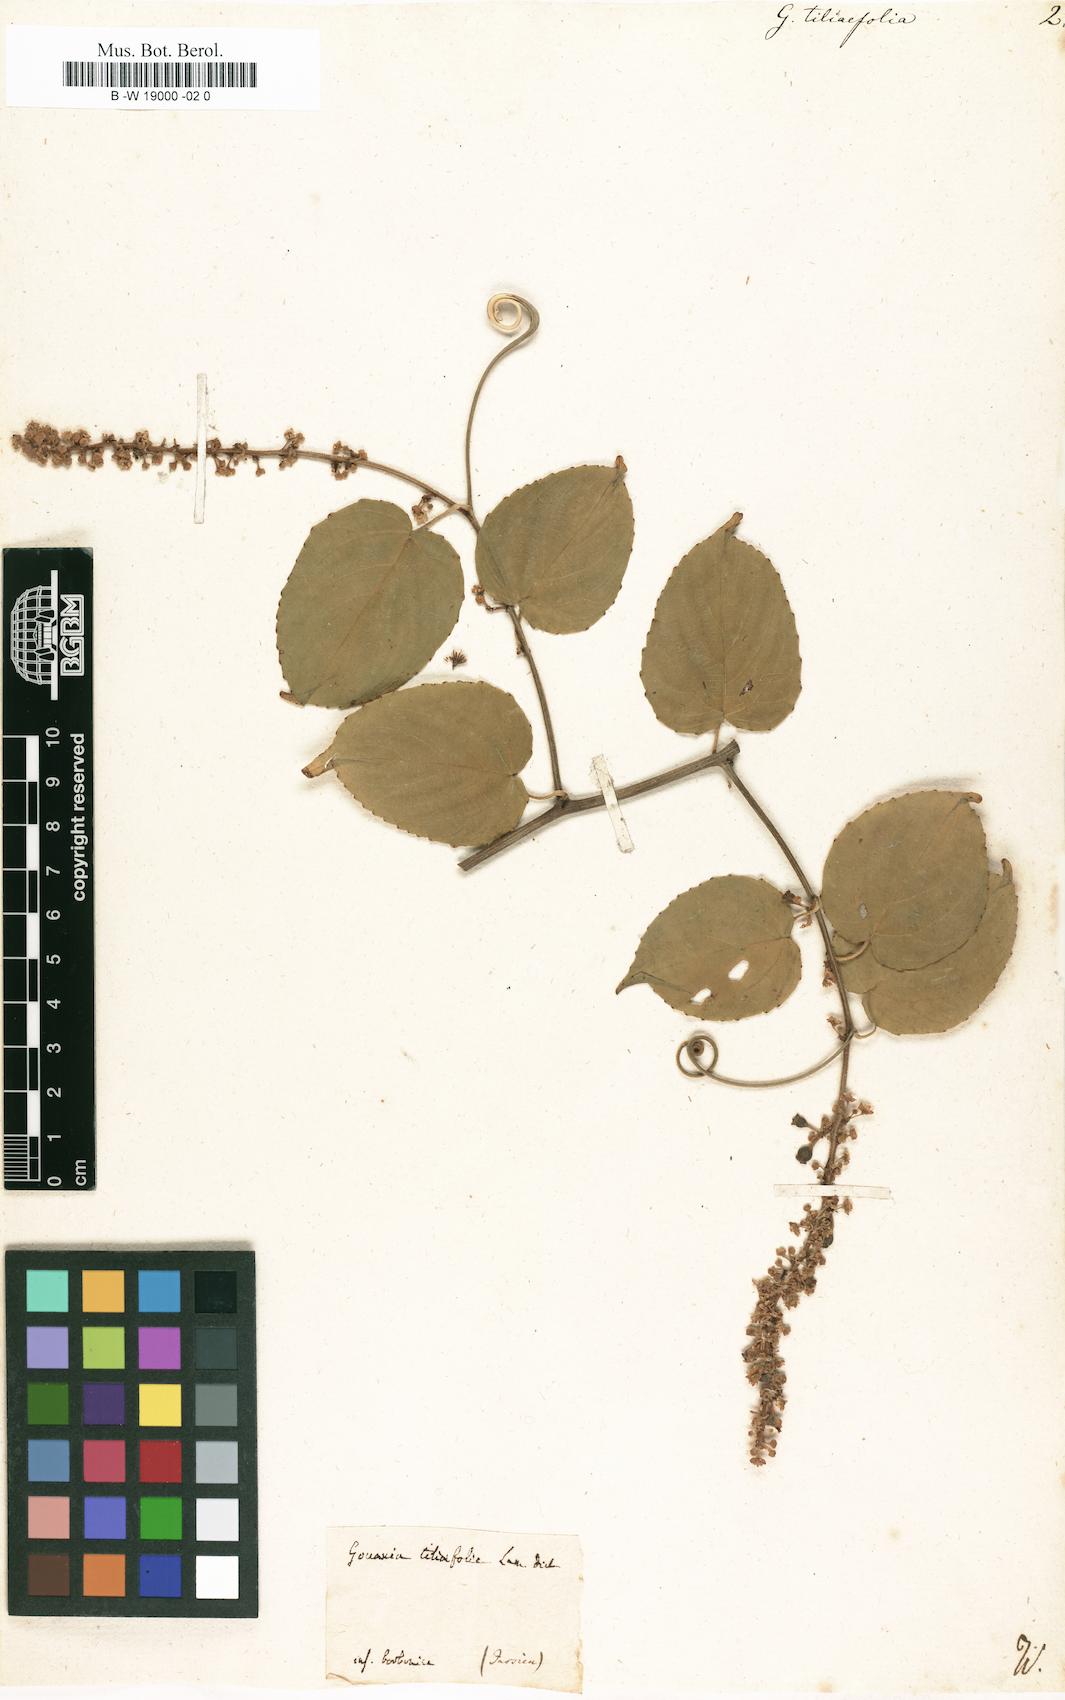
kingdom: Plantae
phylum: Tracheophyta
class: Magnoliopsida
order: Rosales
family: Rhamnaceae
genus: Gouania
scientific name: Gouania tiliifolia
